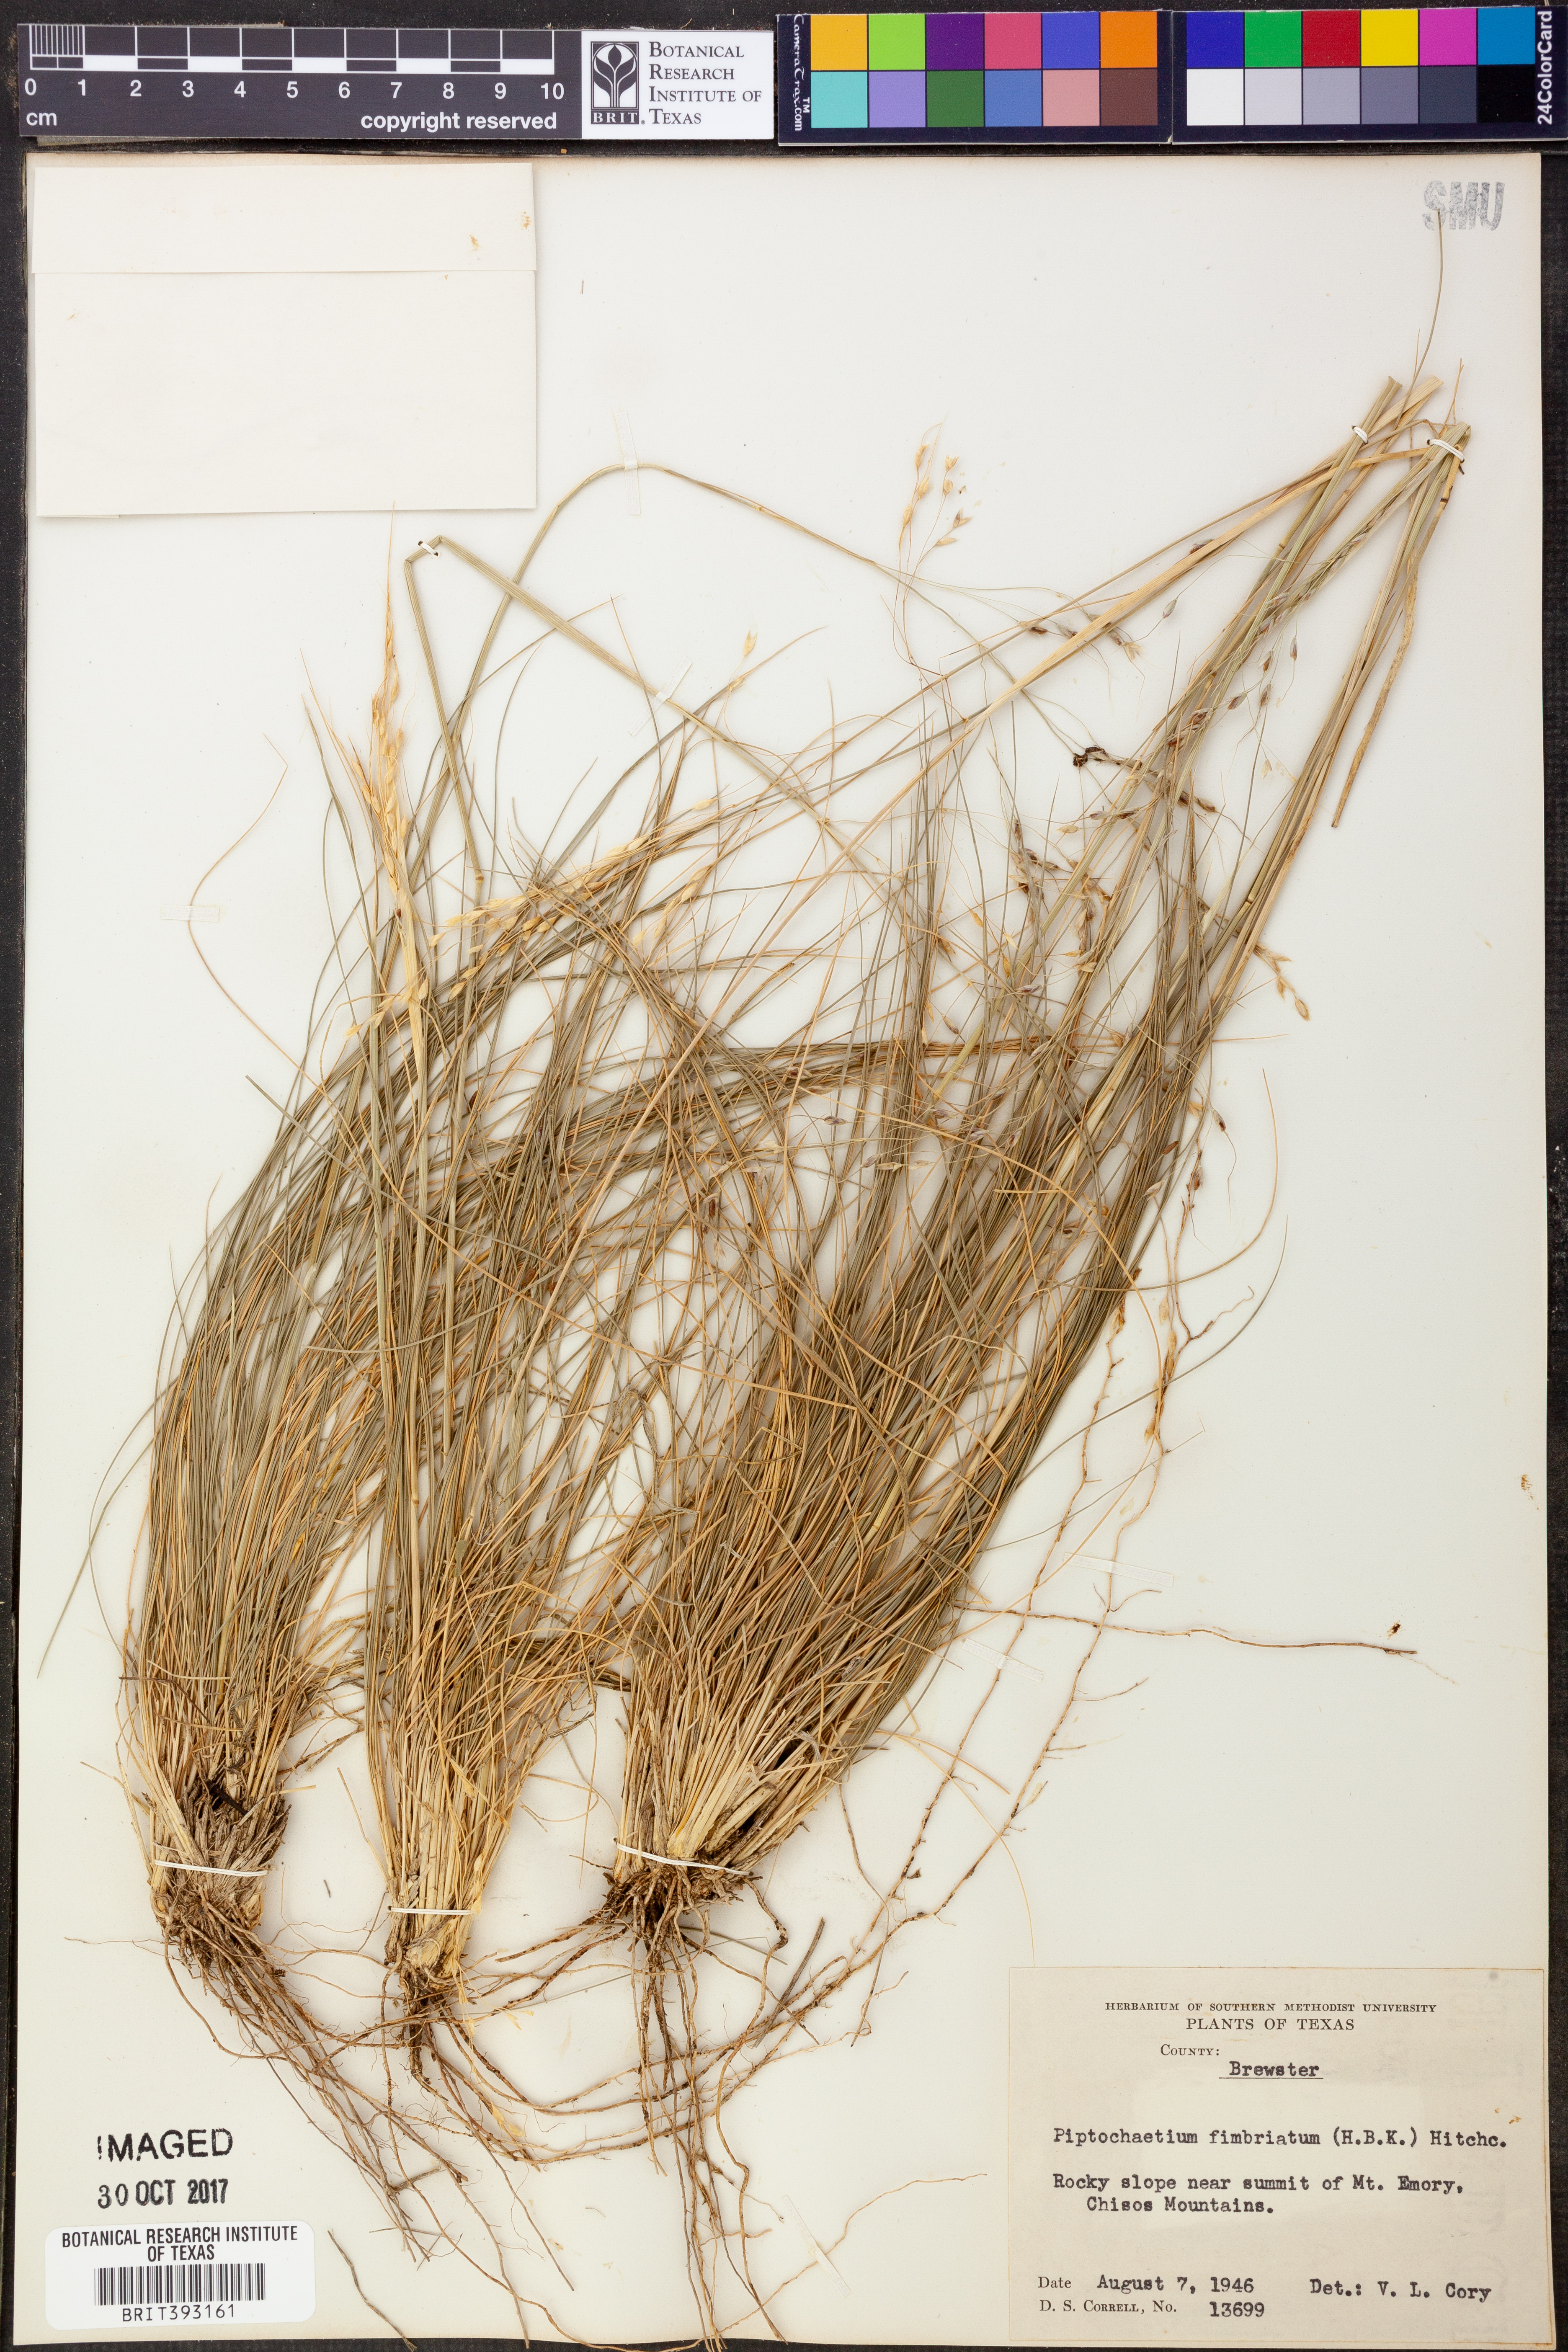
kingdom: Plantae
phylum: Tracheophyta
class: Liliopsida
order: Poales
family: Poaceae
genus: Piptochaetium
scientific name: Piptochaetium fimbriatum
